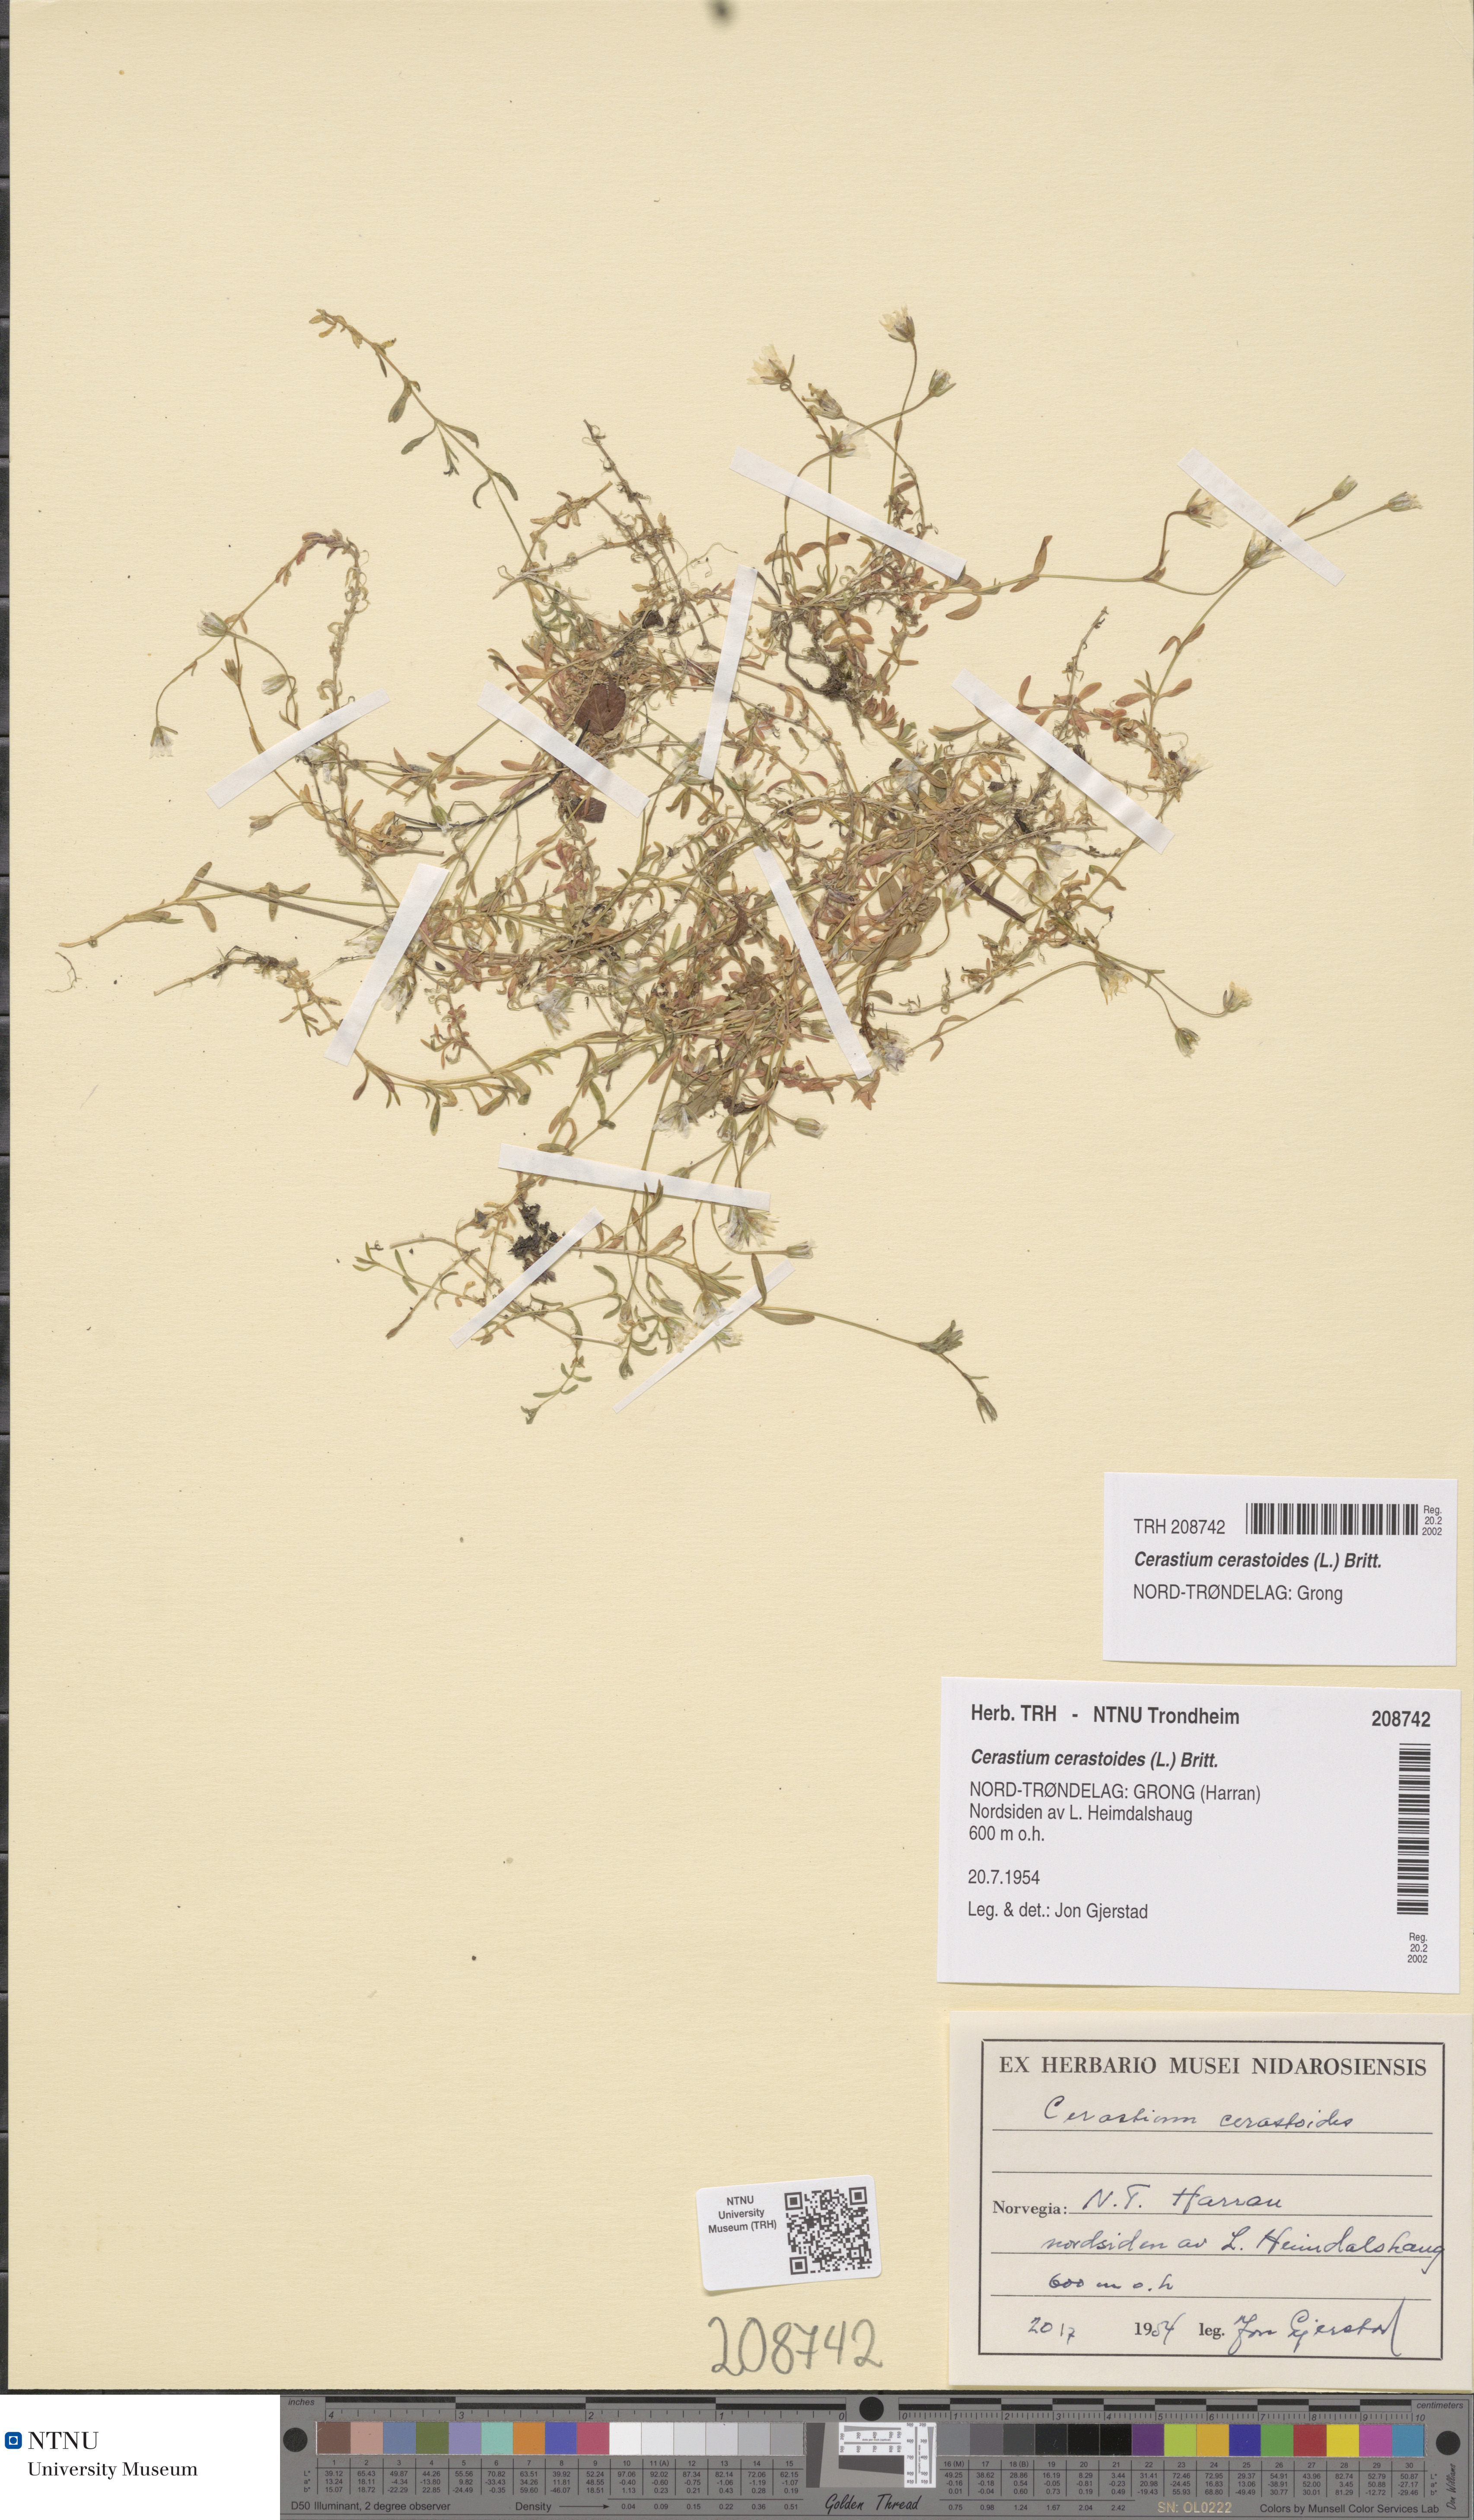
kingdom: Plantae
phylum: Tracheophyta
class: Magnoliopsida
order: Caryophyllales
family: Caryophyllaceae
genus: Dichodon
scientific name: Dichodon cerastoides
